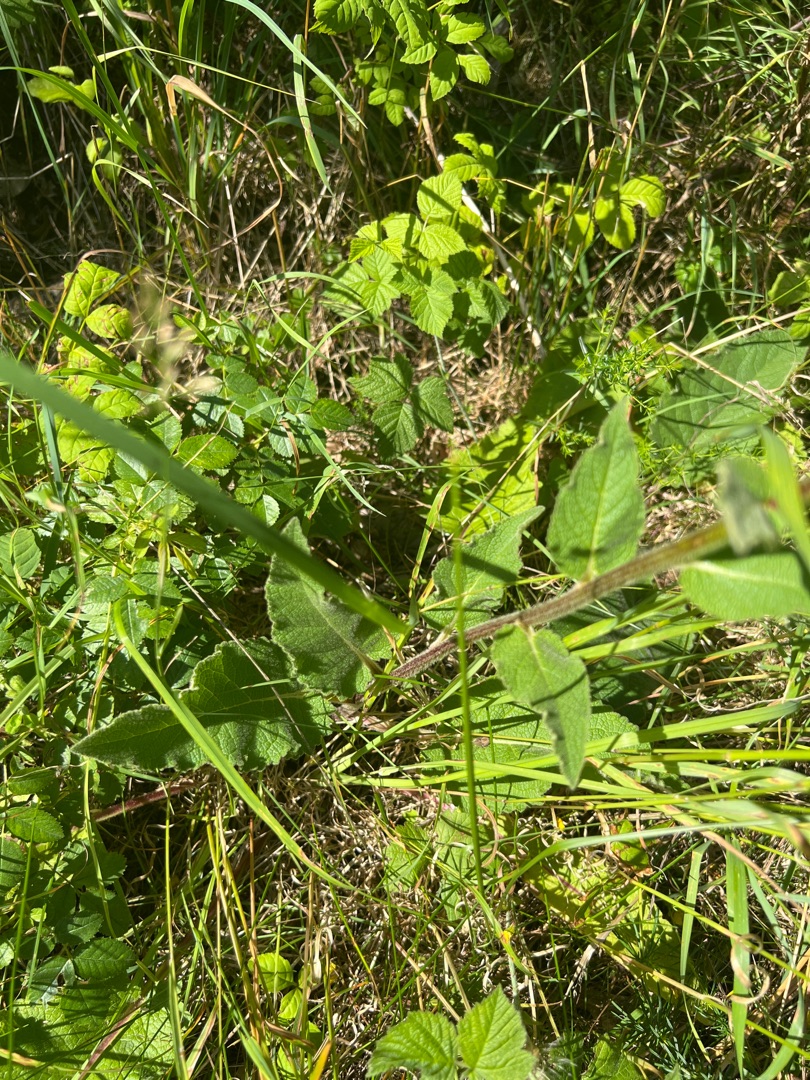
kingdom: Plantae
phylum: Tracheophyta
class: Magnoliopsida
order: Lamiales
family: Scrophulariaceae
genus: Verbascum
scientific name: Verbascum nigrum
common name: Mørk kongelys
